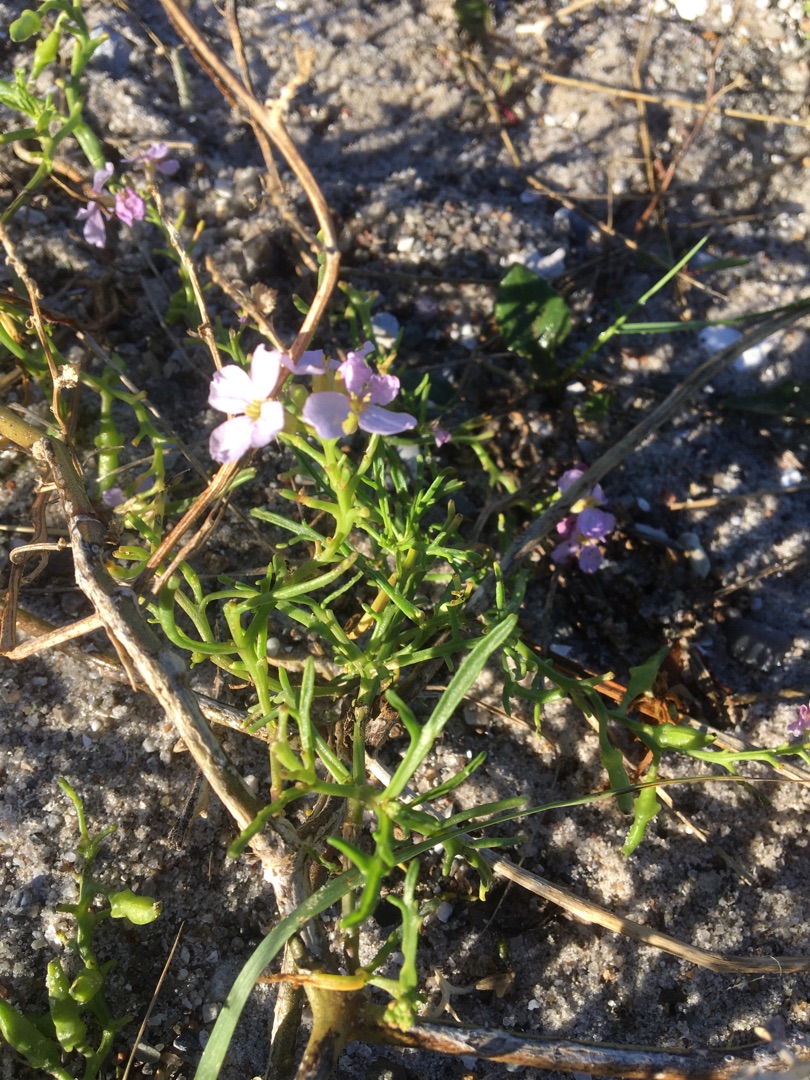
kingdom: Plantae
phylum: Tracheophyta
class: Magnoliopsida
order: Brassicales
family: Brassicaceae
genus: Cakile
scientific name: Cakile maritima
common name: Østersø-strandsennep
